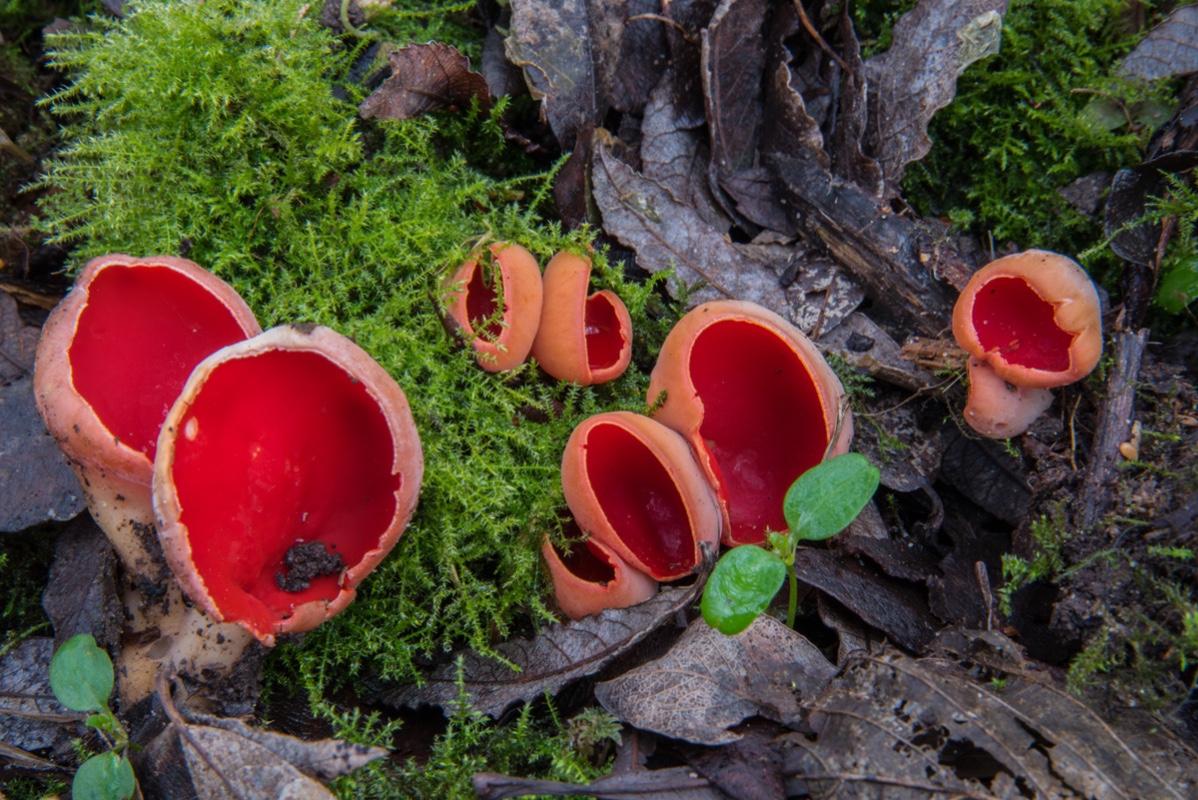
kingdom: Fungi
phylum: Ascomycota
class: Pezizomycetes
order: Pezizales
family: Sarcoscyphaceae
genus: Sarcoscypha
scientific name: Sarcoscypha austriaca
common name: krølhåret pragtbæger
